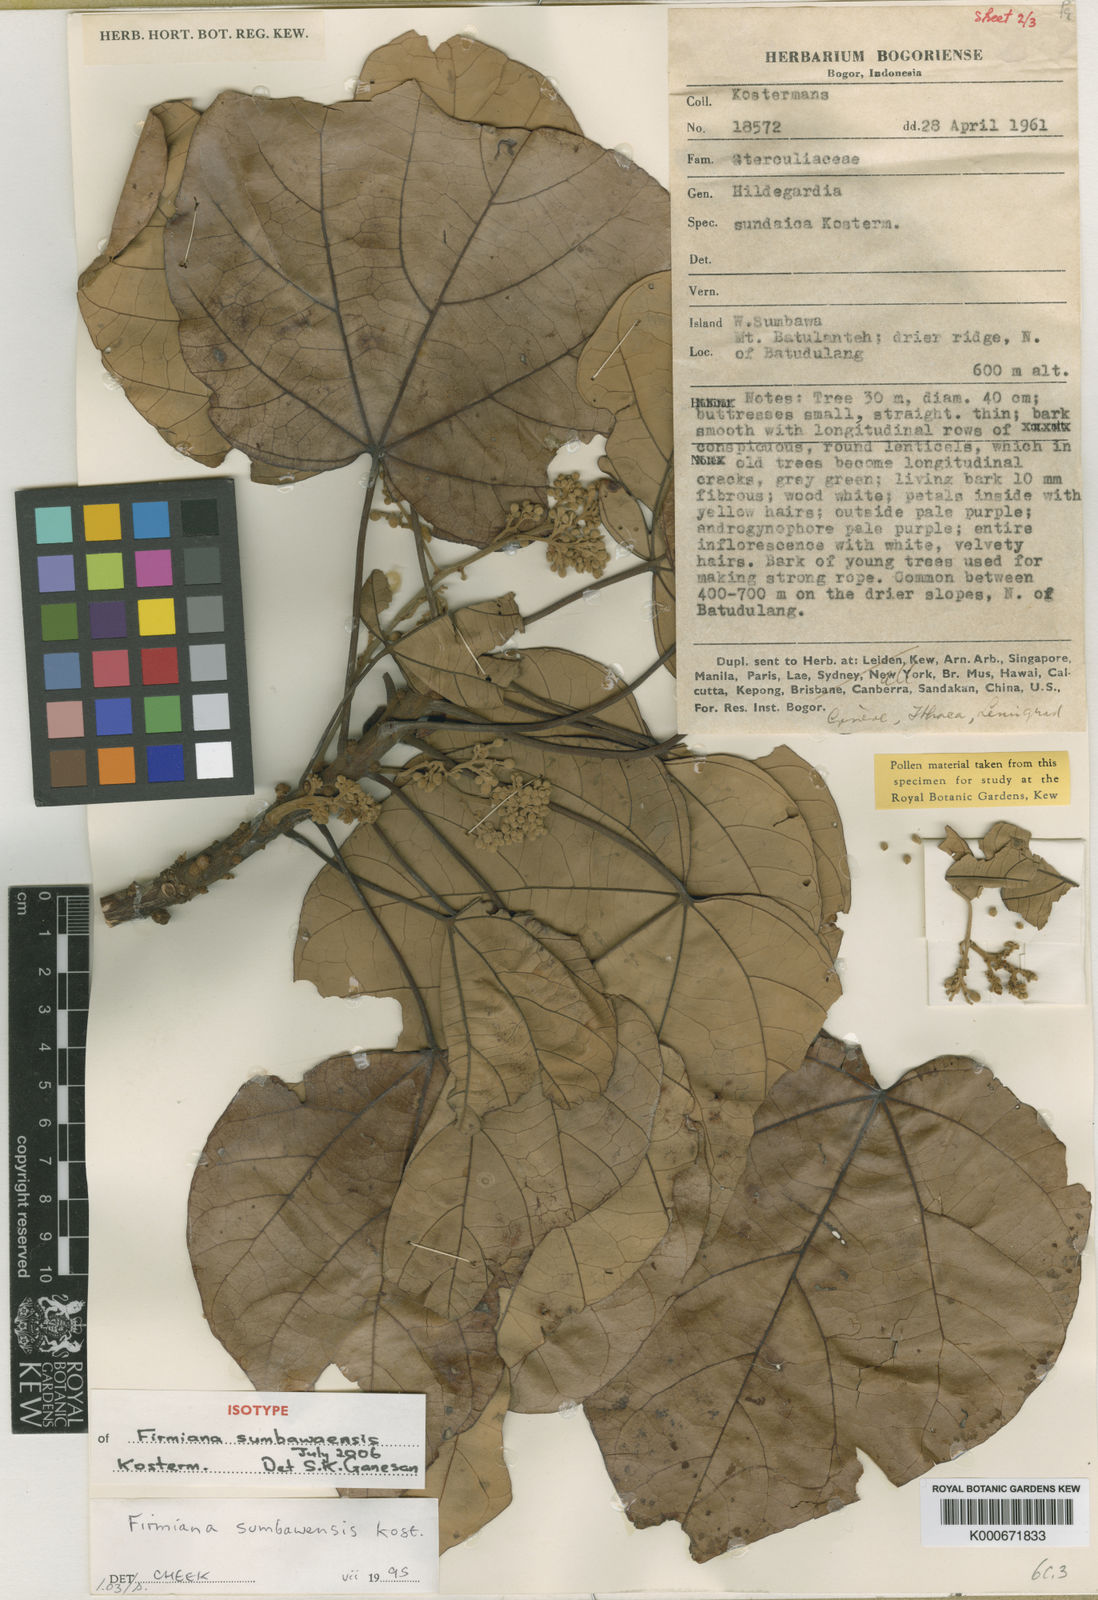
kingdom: Plantae
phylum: Tracheophyta
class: Magnoliopsida
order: Malvales
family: Malvaceae
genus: Firmiana
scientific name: Firmiana sumbawaensis
